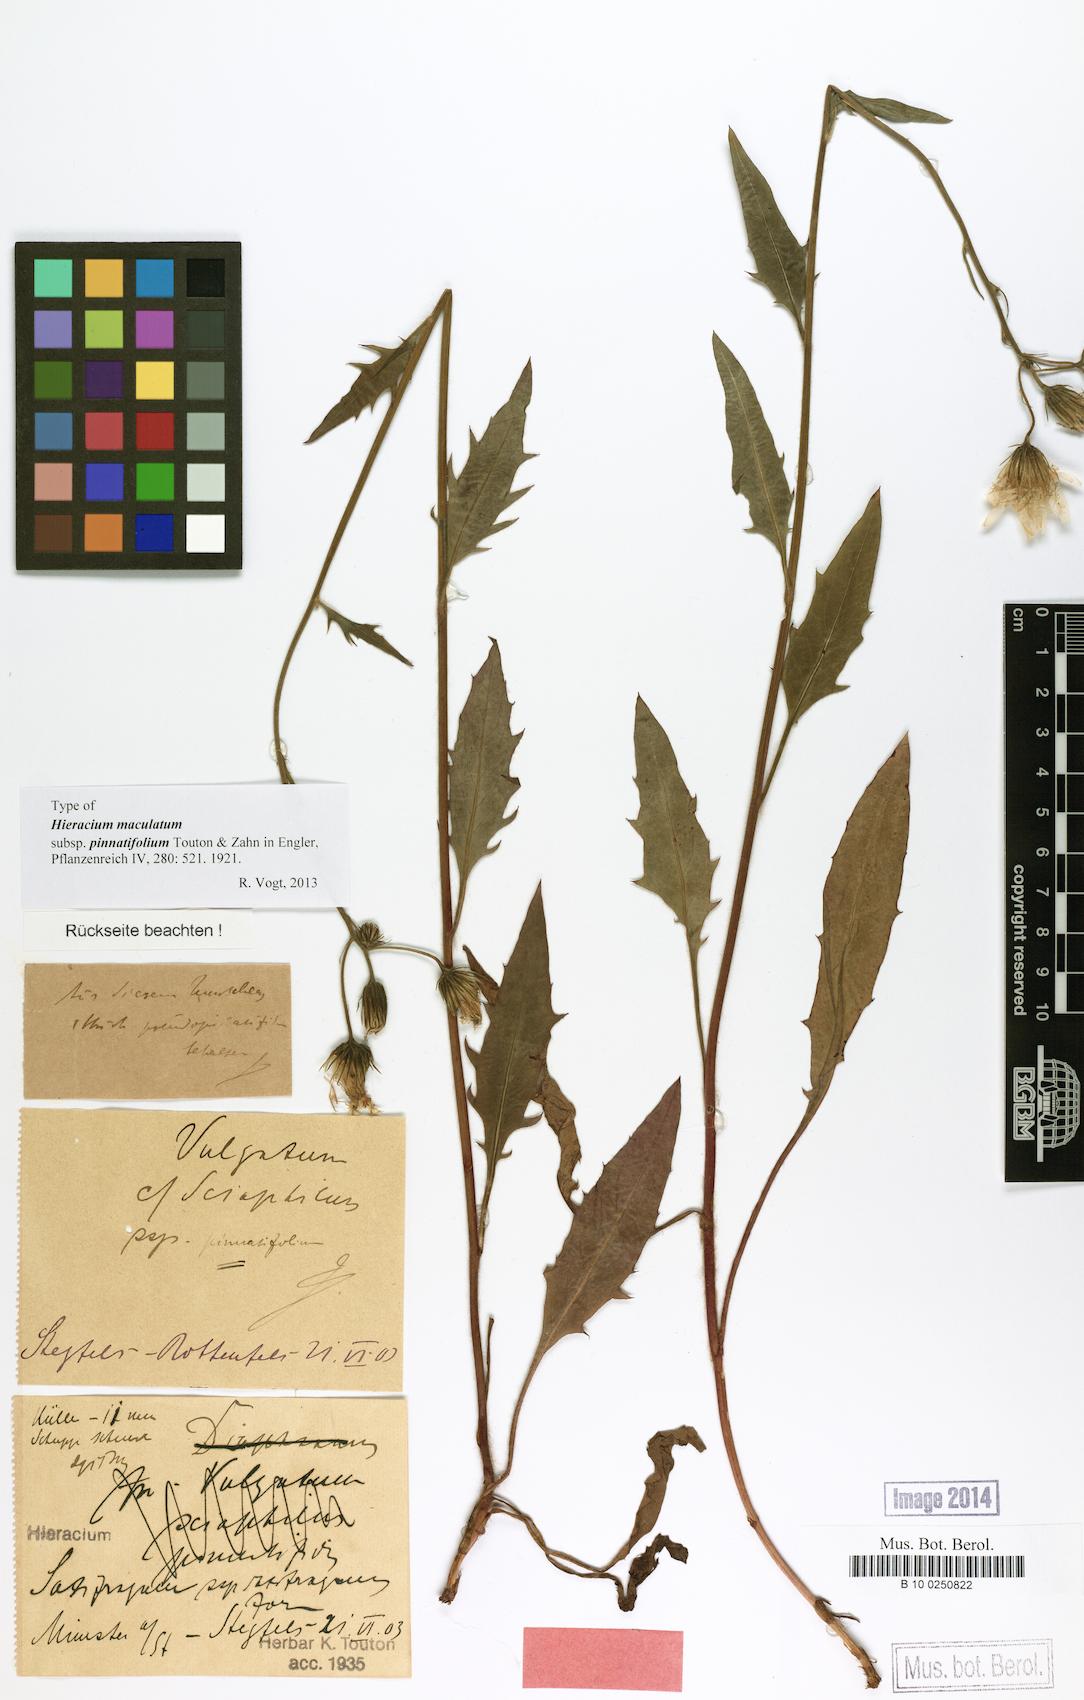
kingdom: Plantae
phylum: Tracheophyta
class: Magnoliopsida
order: Asterales
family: Asteraceae
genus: Hieracium
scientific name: Hieracium maculatum
